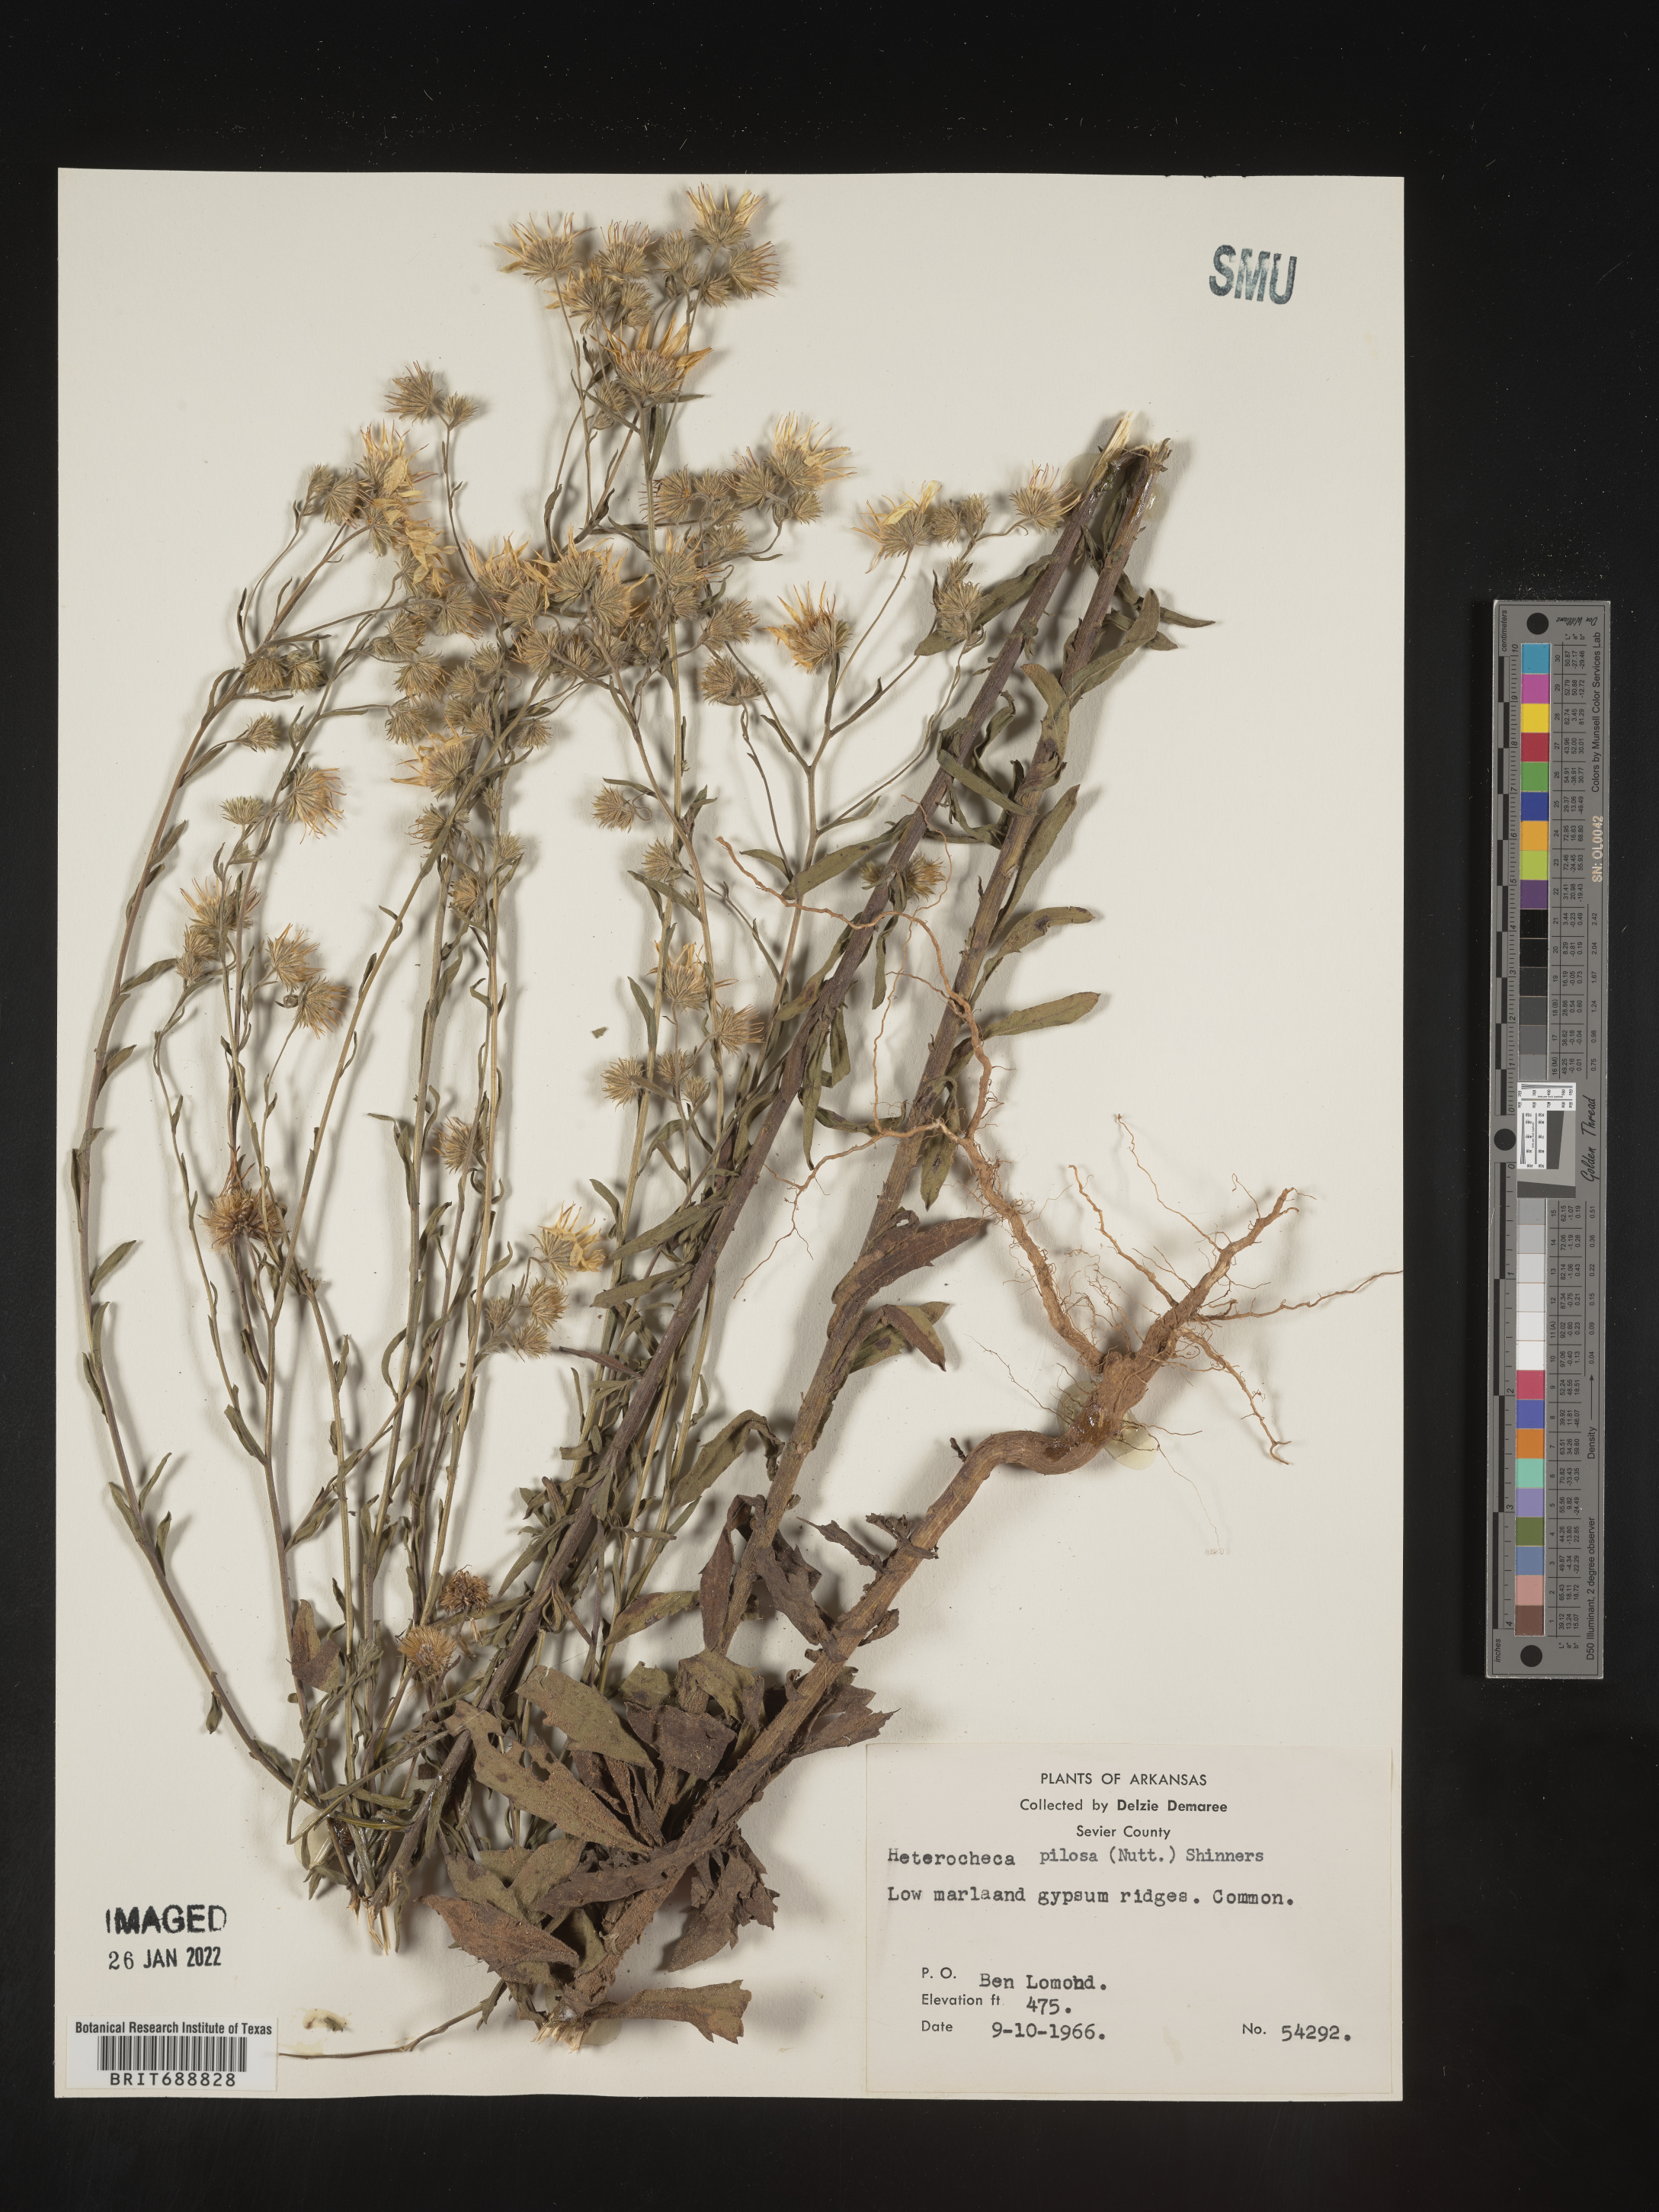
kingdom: Plantae
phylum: Tracheophyta
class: Magnoliopsida
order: Asterales
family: Asteraceae
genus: Bradburia
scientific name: Bradburia pilosa
